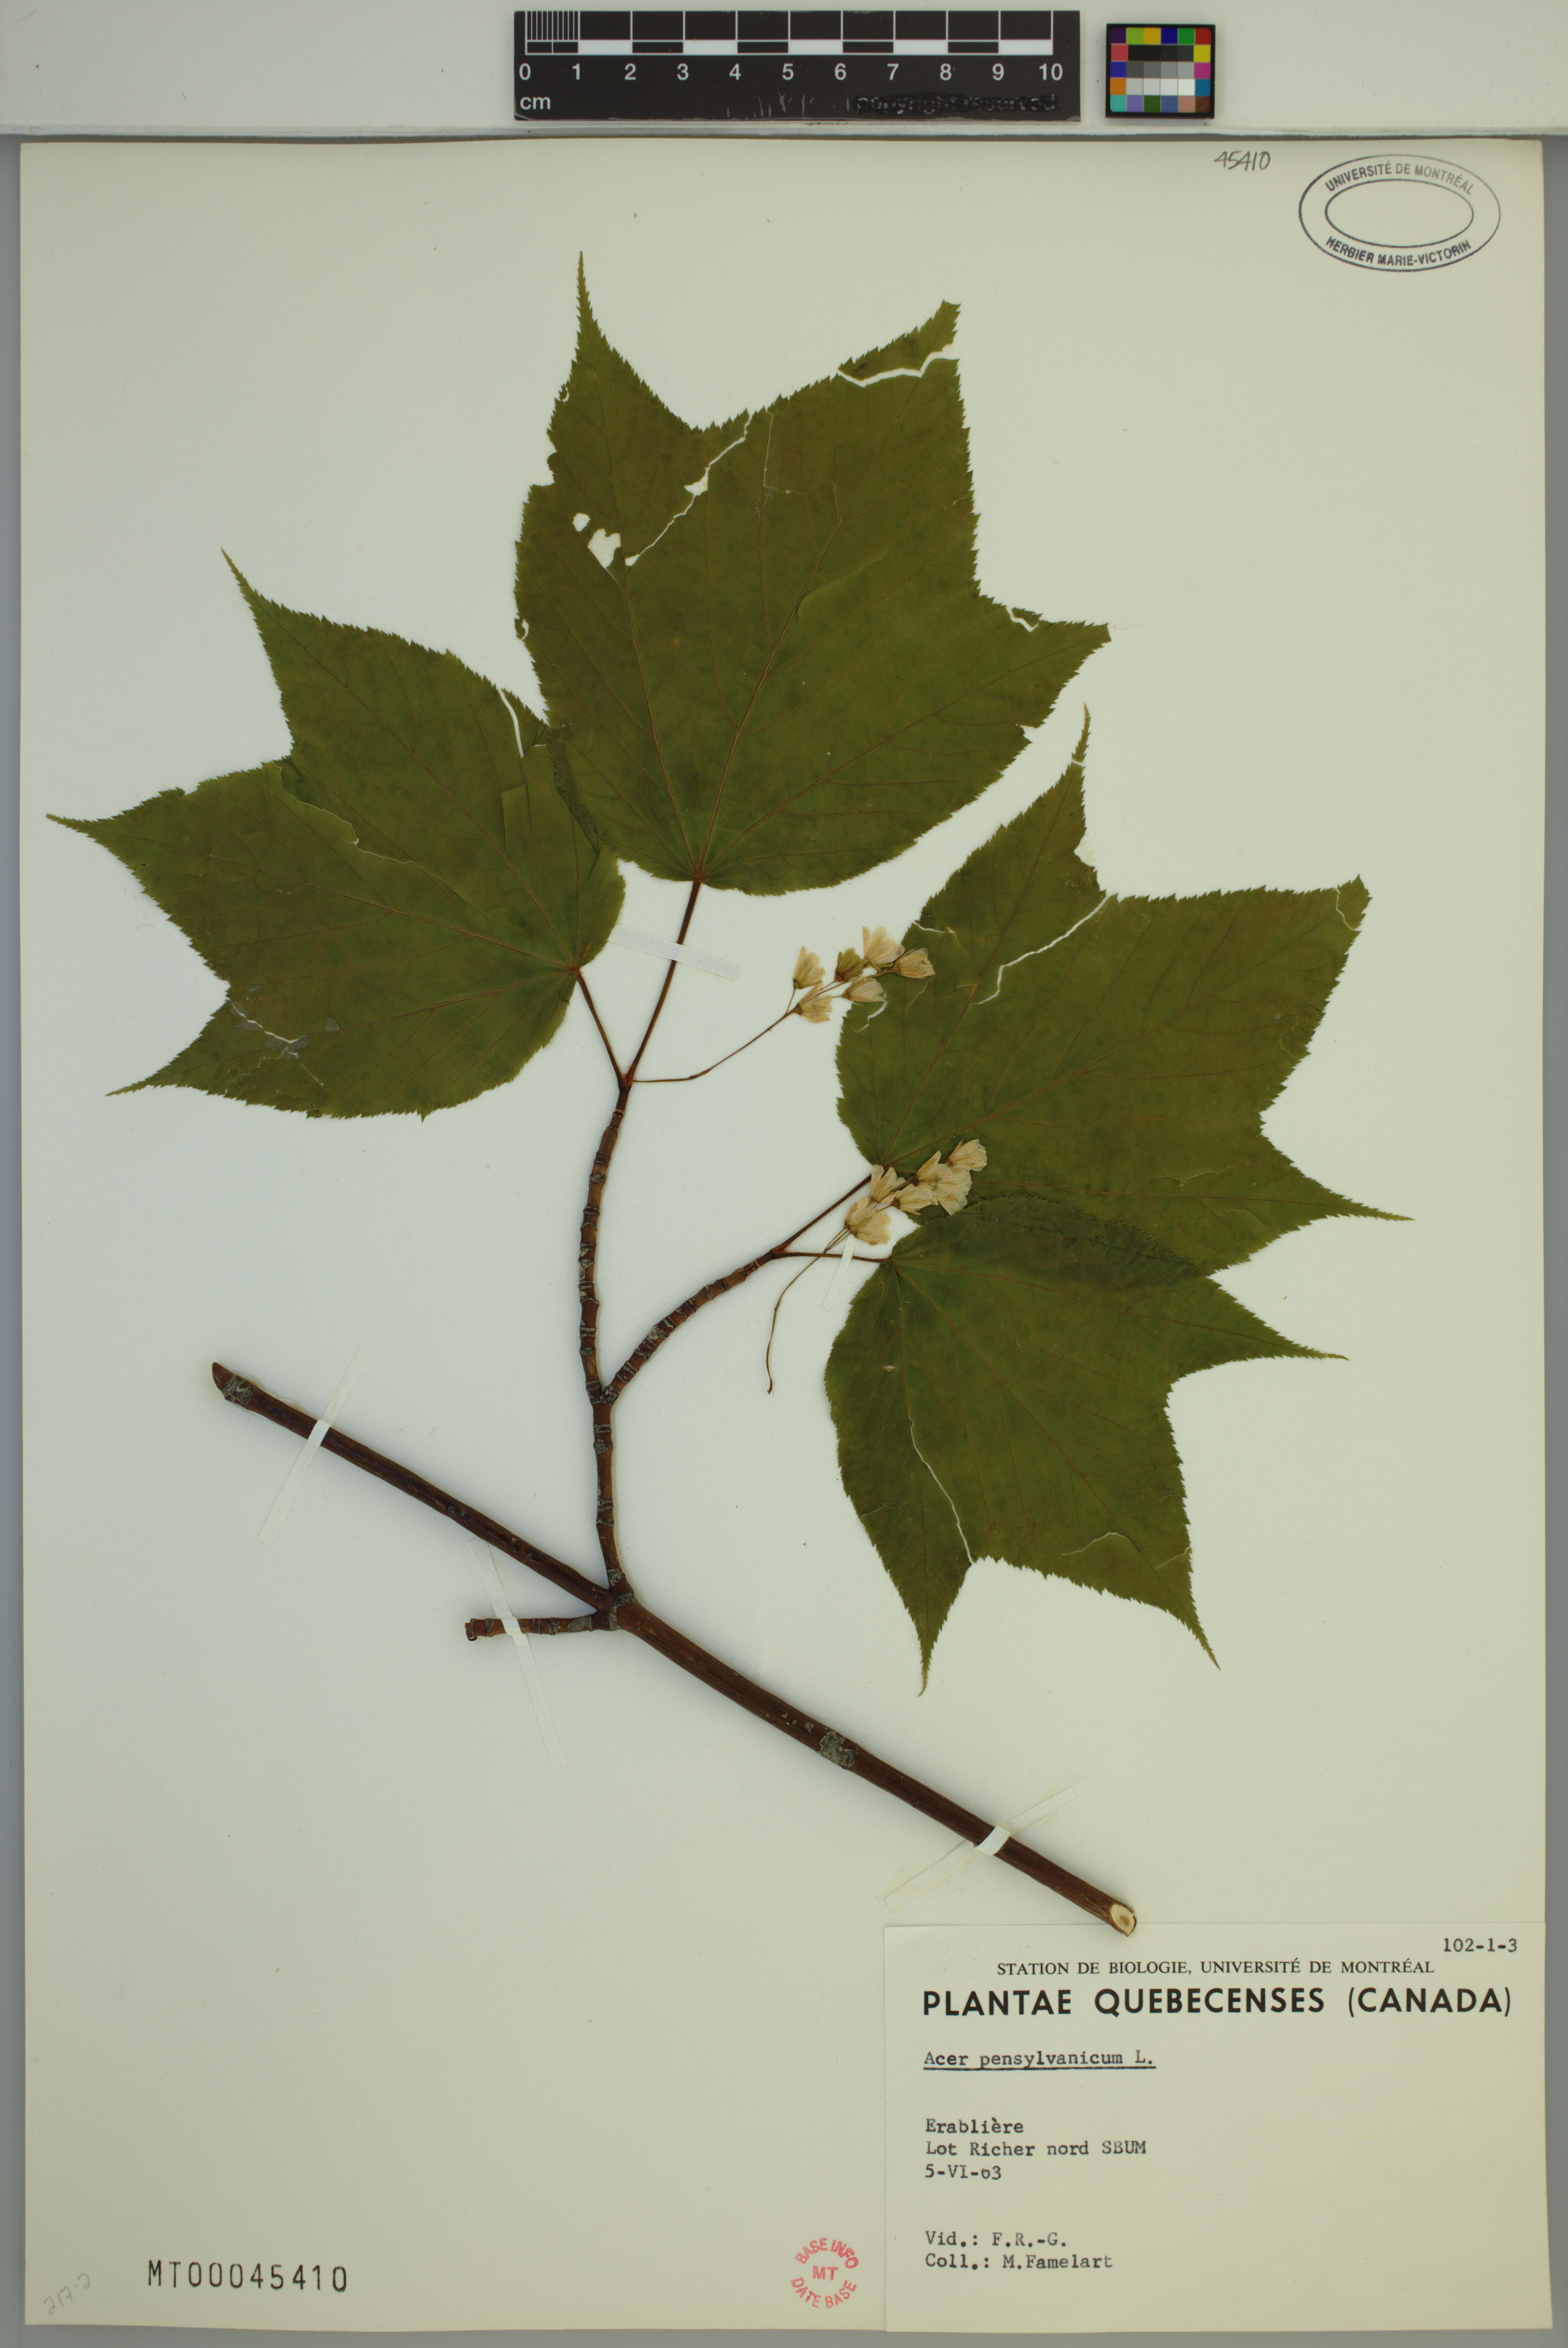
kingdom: Plantae
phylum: Tracheophyta
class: Magnoliopsida
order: Sapindales
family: Sapindaceae
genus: Acer
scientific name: Acer pensylvanicum
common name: Moosewood
